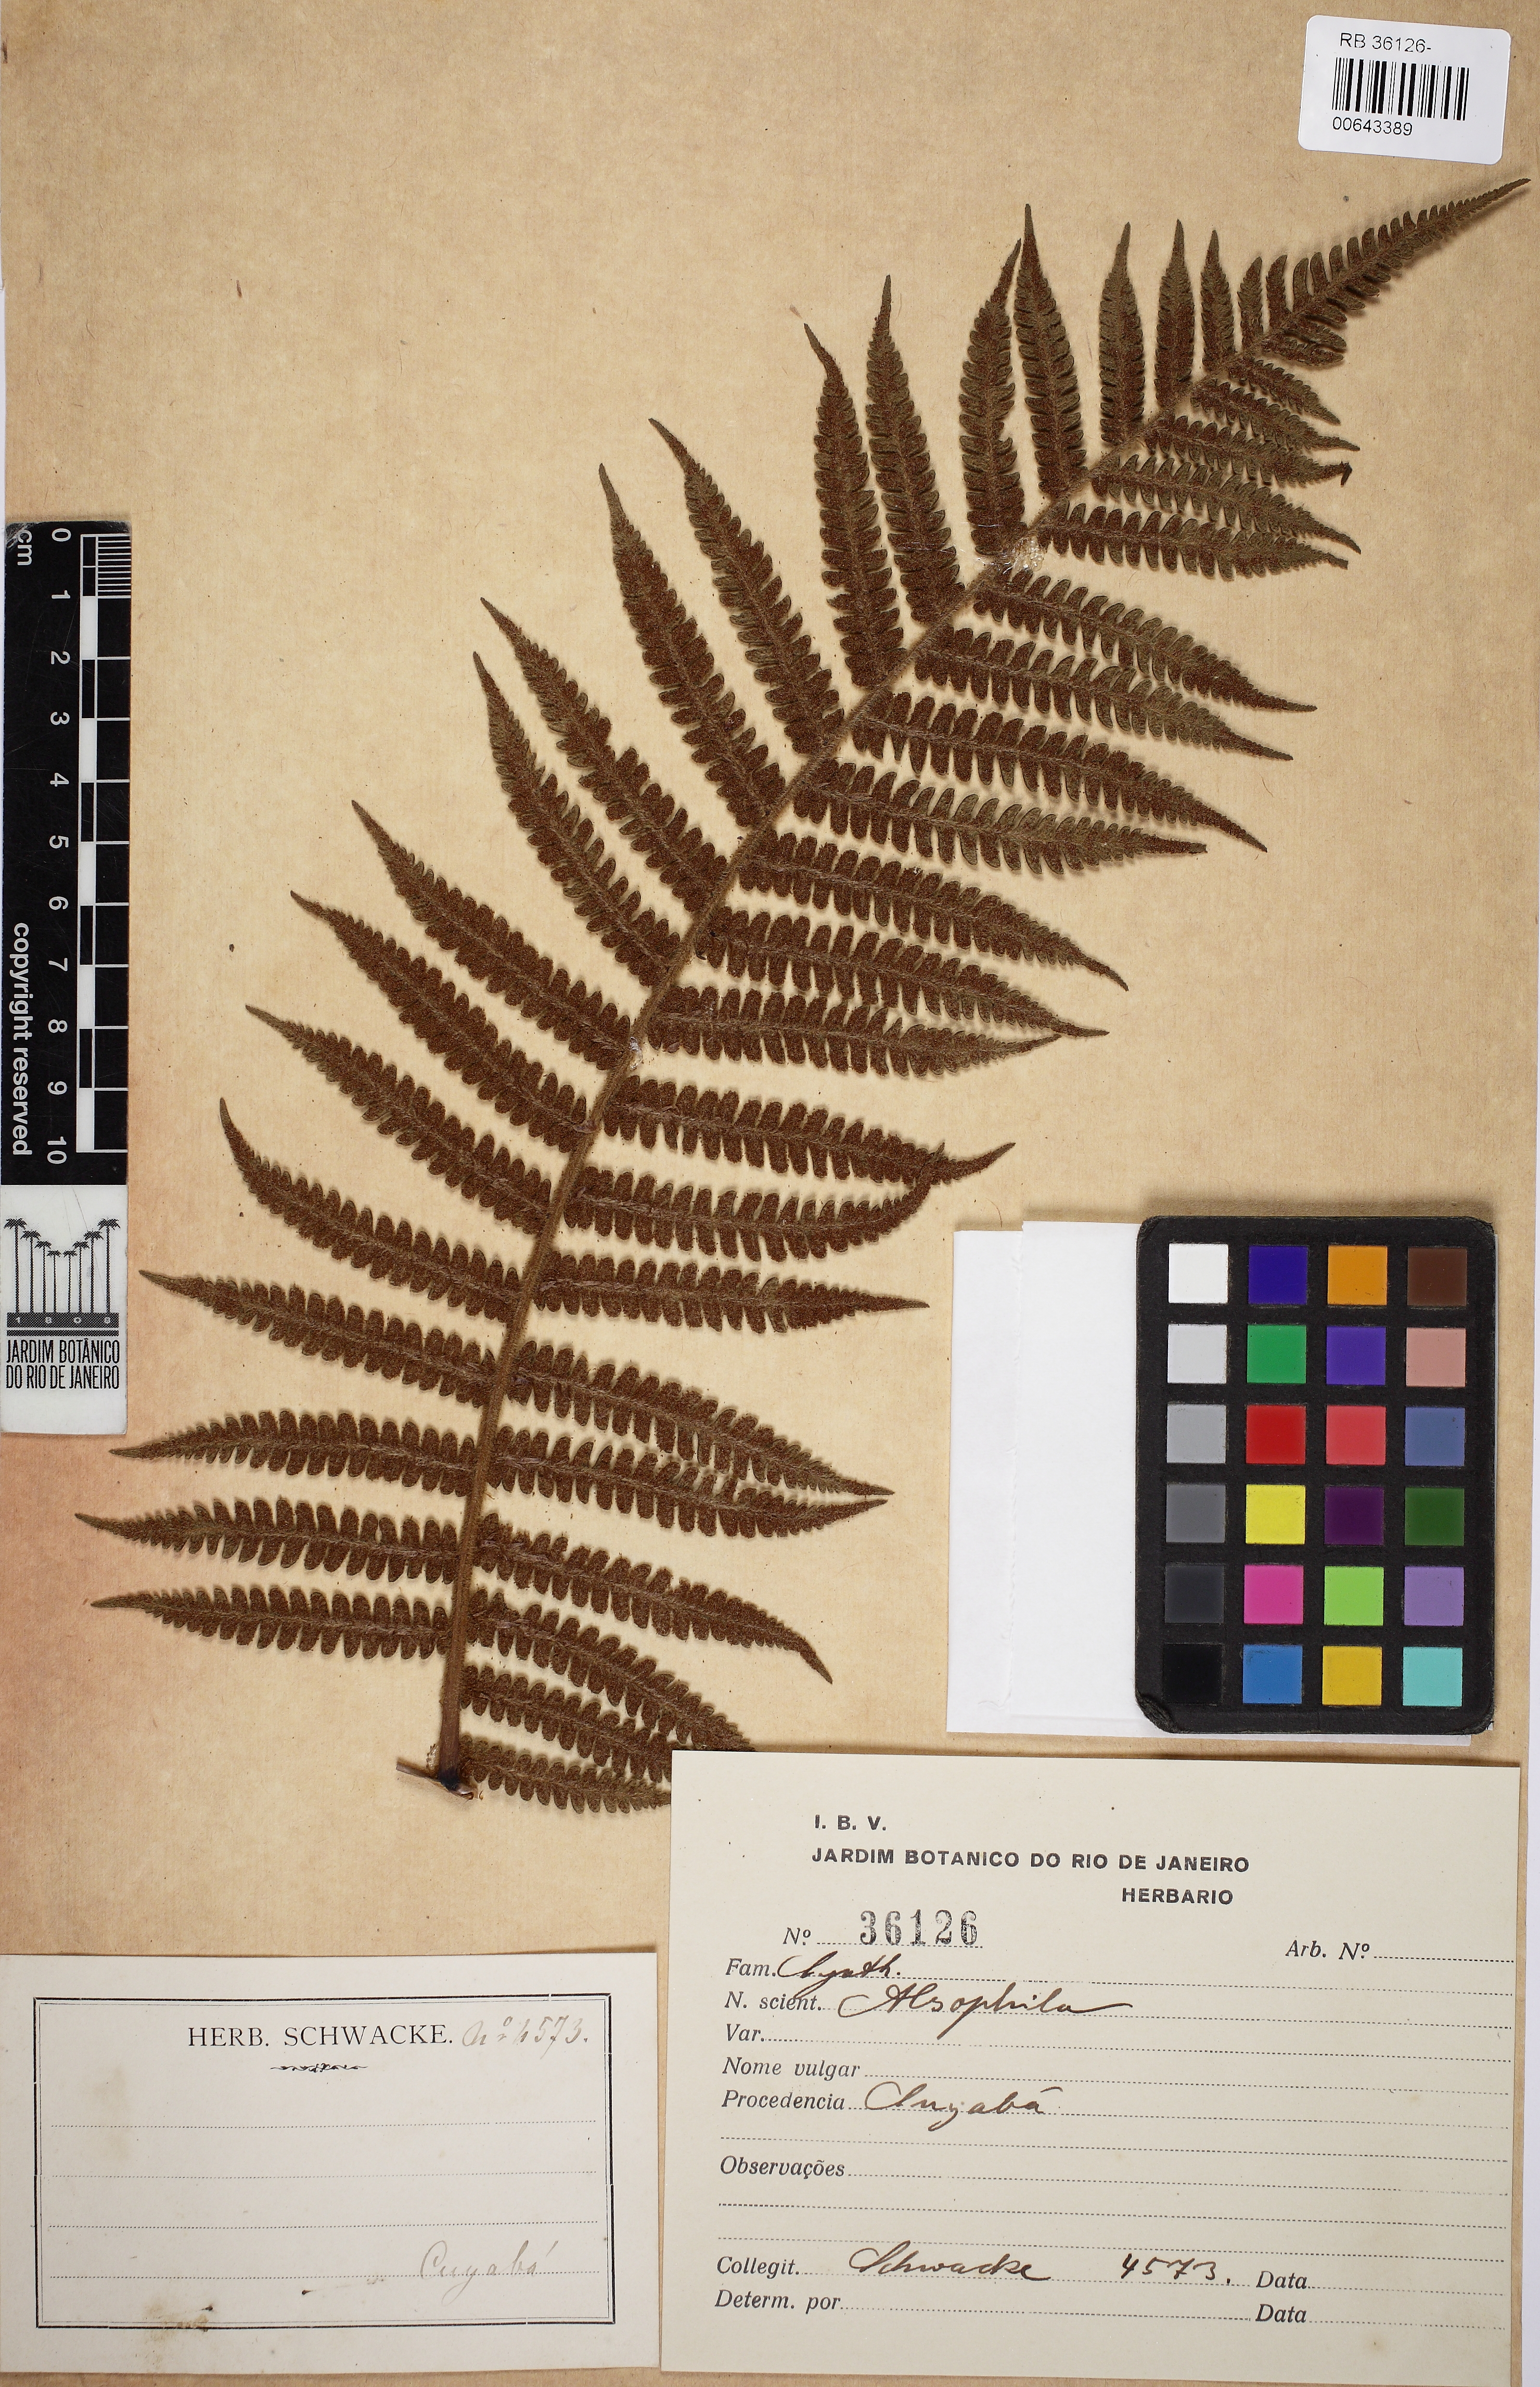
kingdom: Plantae
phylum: Tracheophyta
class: Polypodiopsida
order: Cyatheales
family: Cyatheaceae
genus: Alsophila
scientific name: Alsophila
